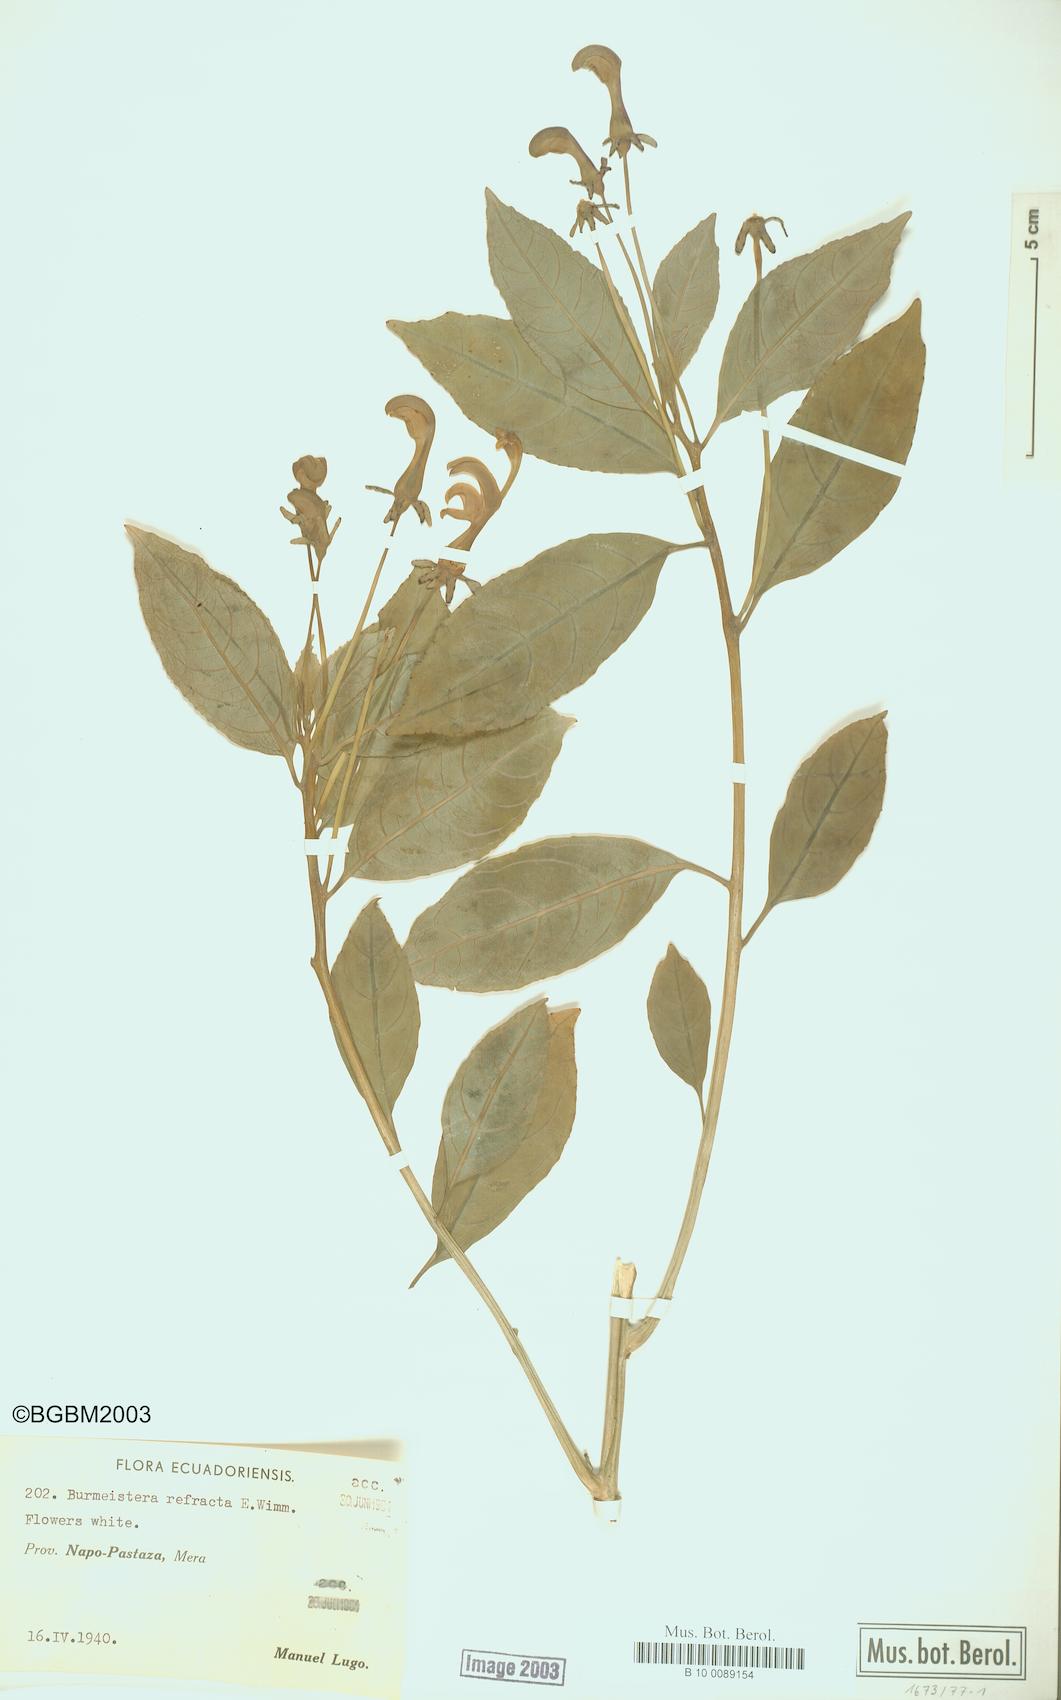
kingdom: Plantae
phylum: Tracheophyta
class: Magnoliopsida
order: Asterales
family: Campanulaceae
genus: Burmeistera
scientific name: Burmeistera refracta
